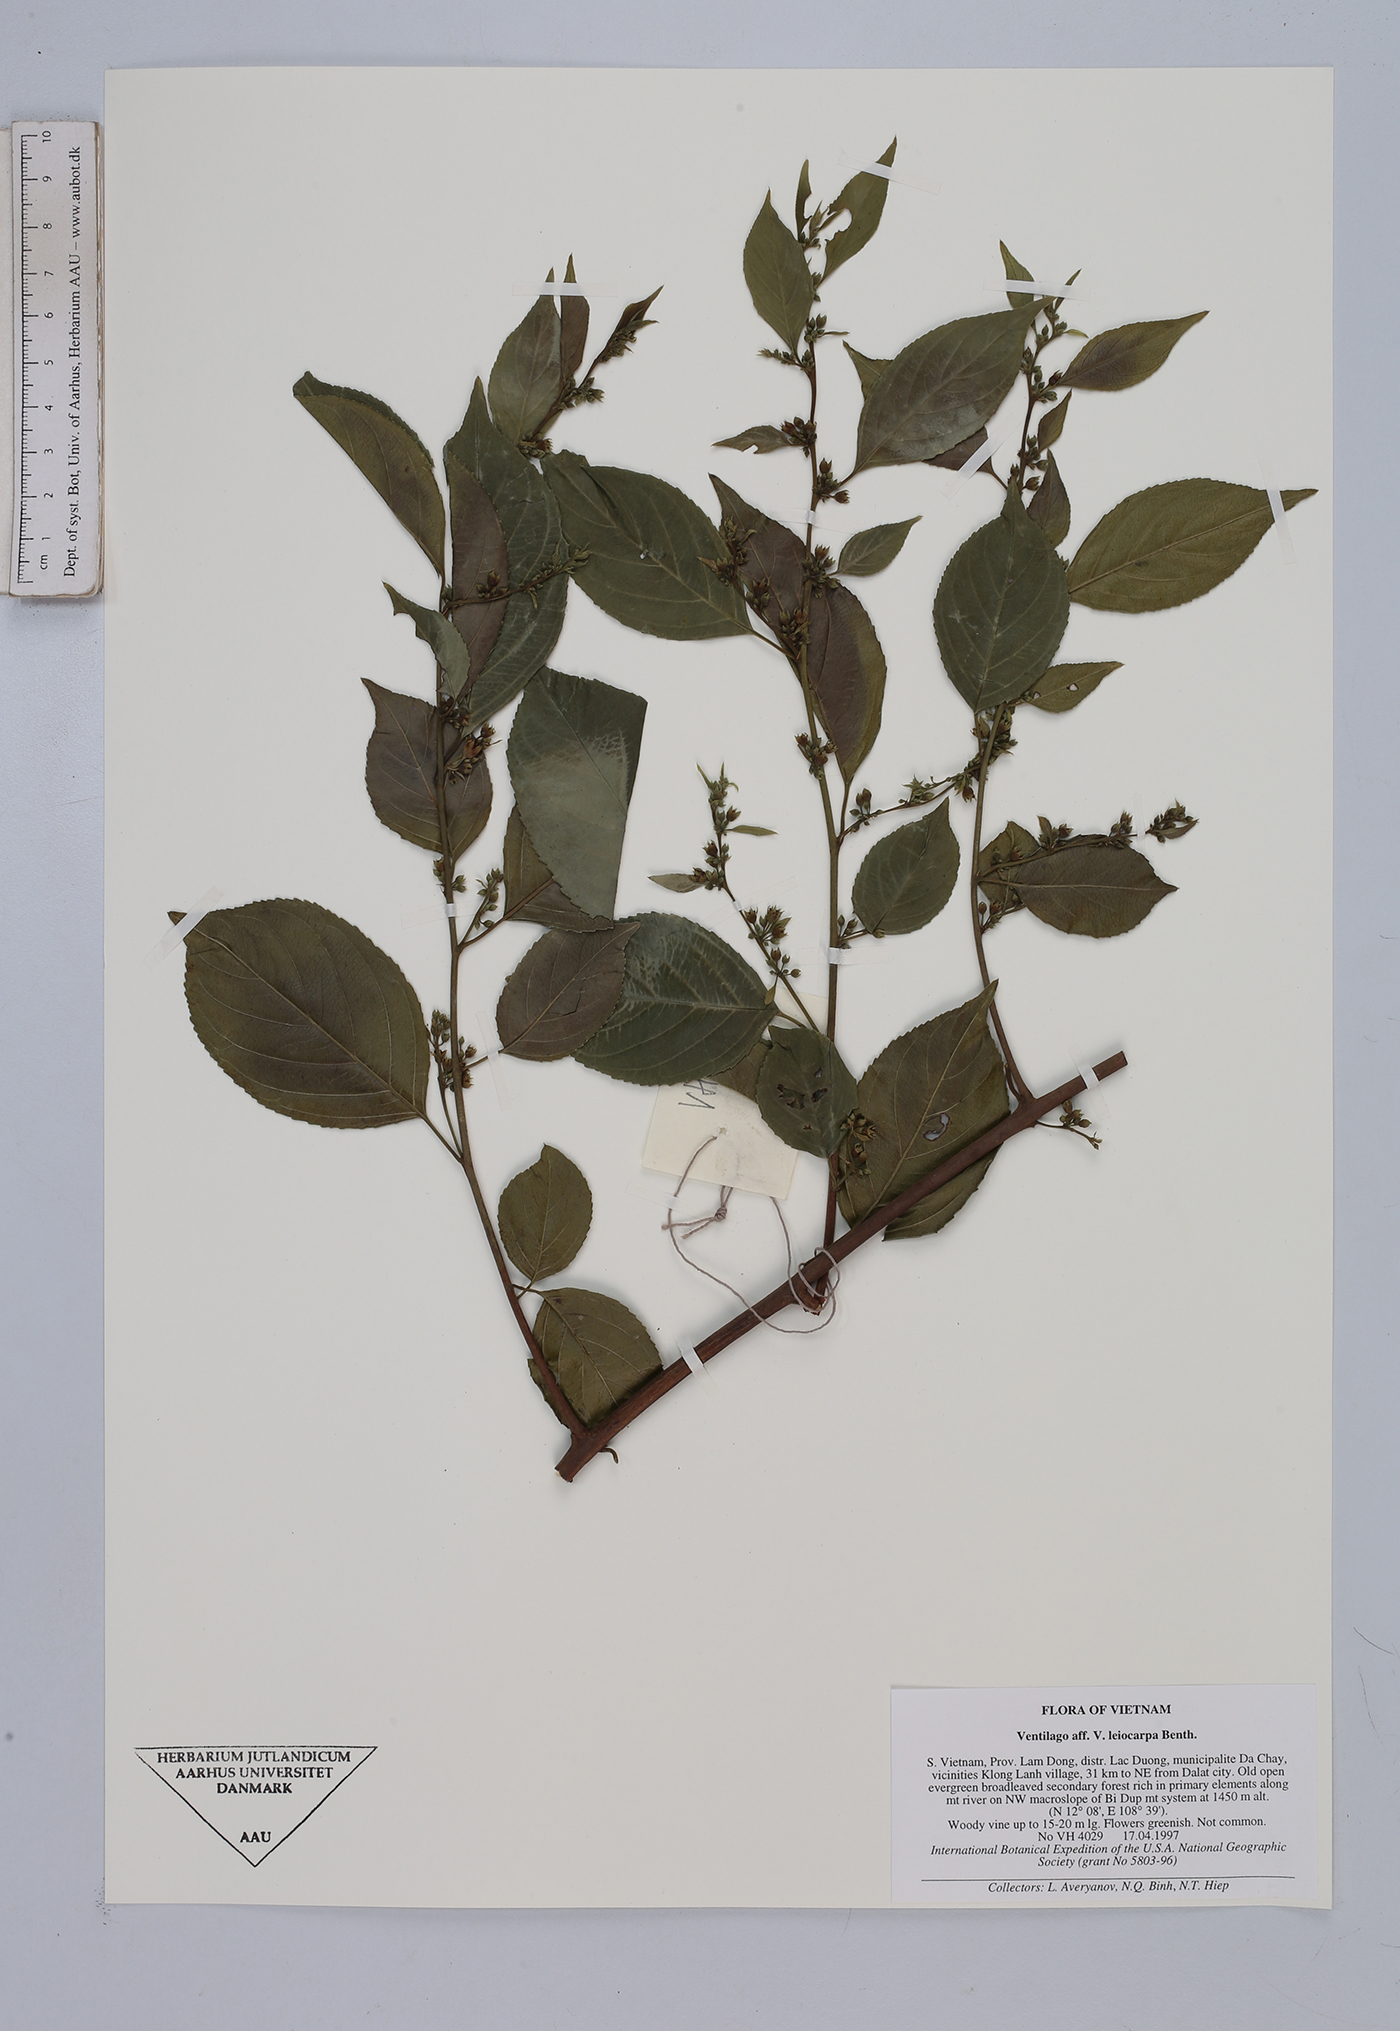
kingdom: Plantae
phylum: Tracheophyta
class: Magnoliopsida
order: Rosales
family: Rhamnaceae
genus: Ventilago
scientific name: Ventilago leiocarpa
